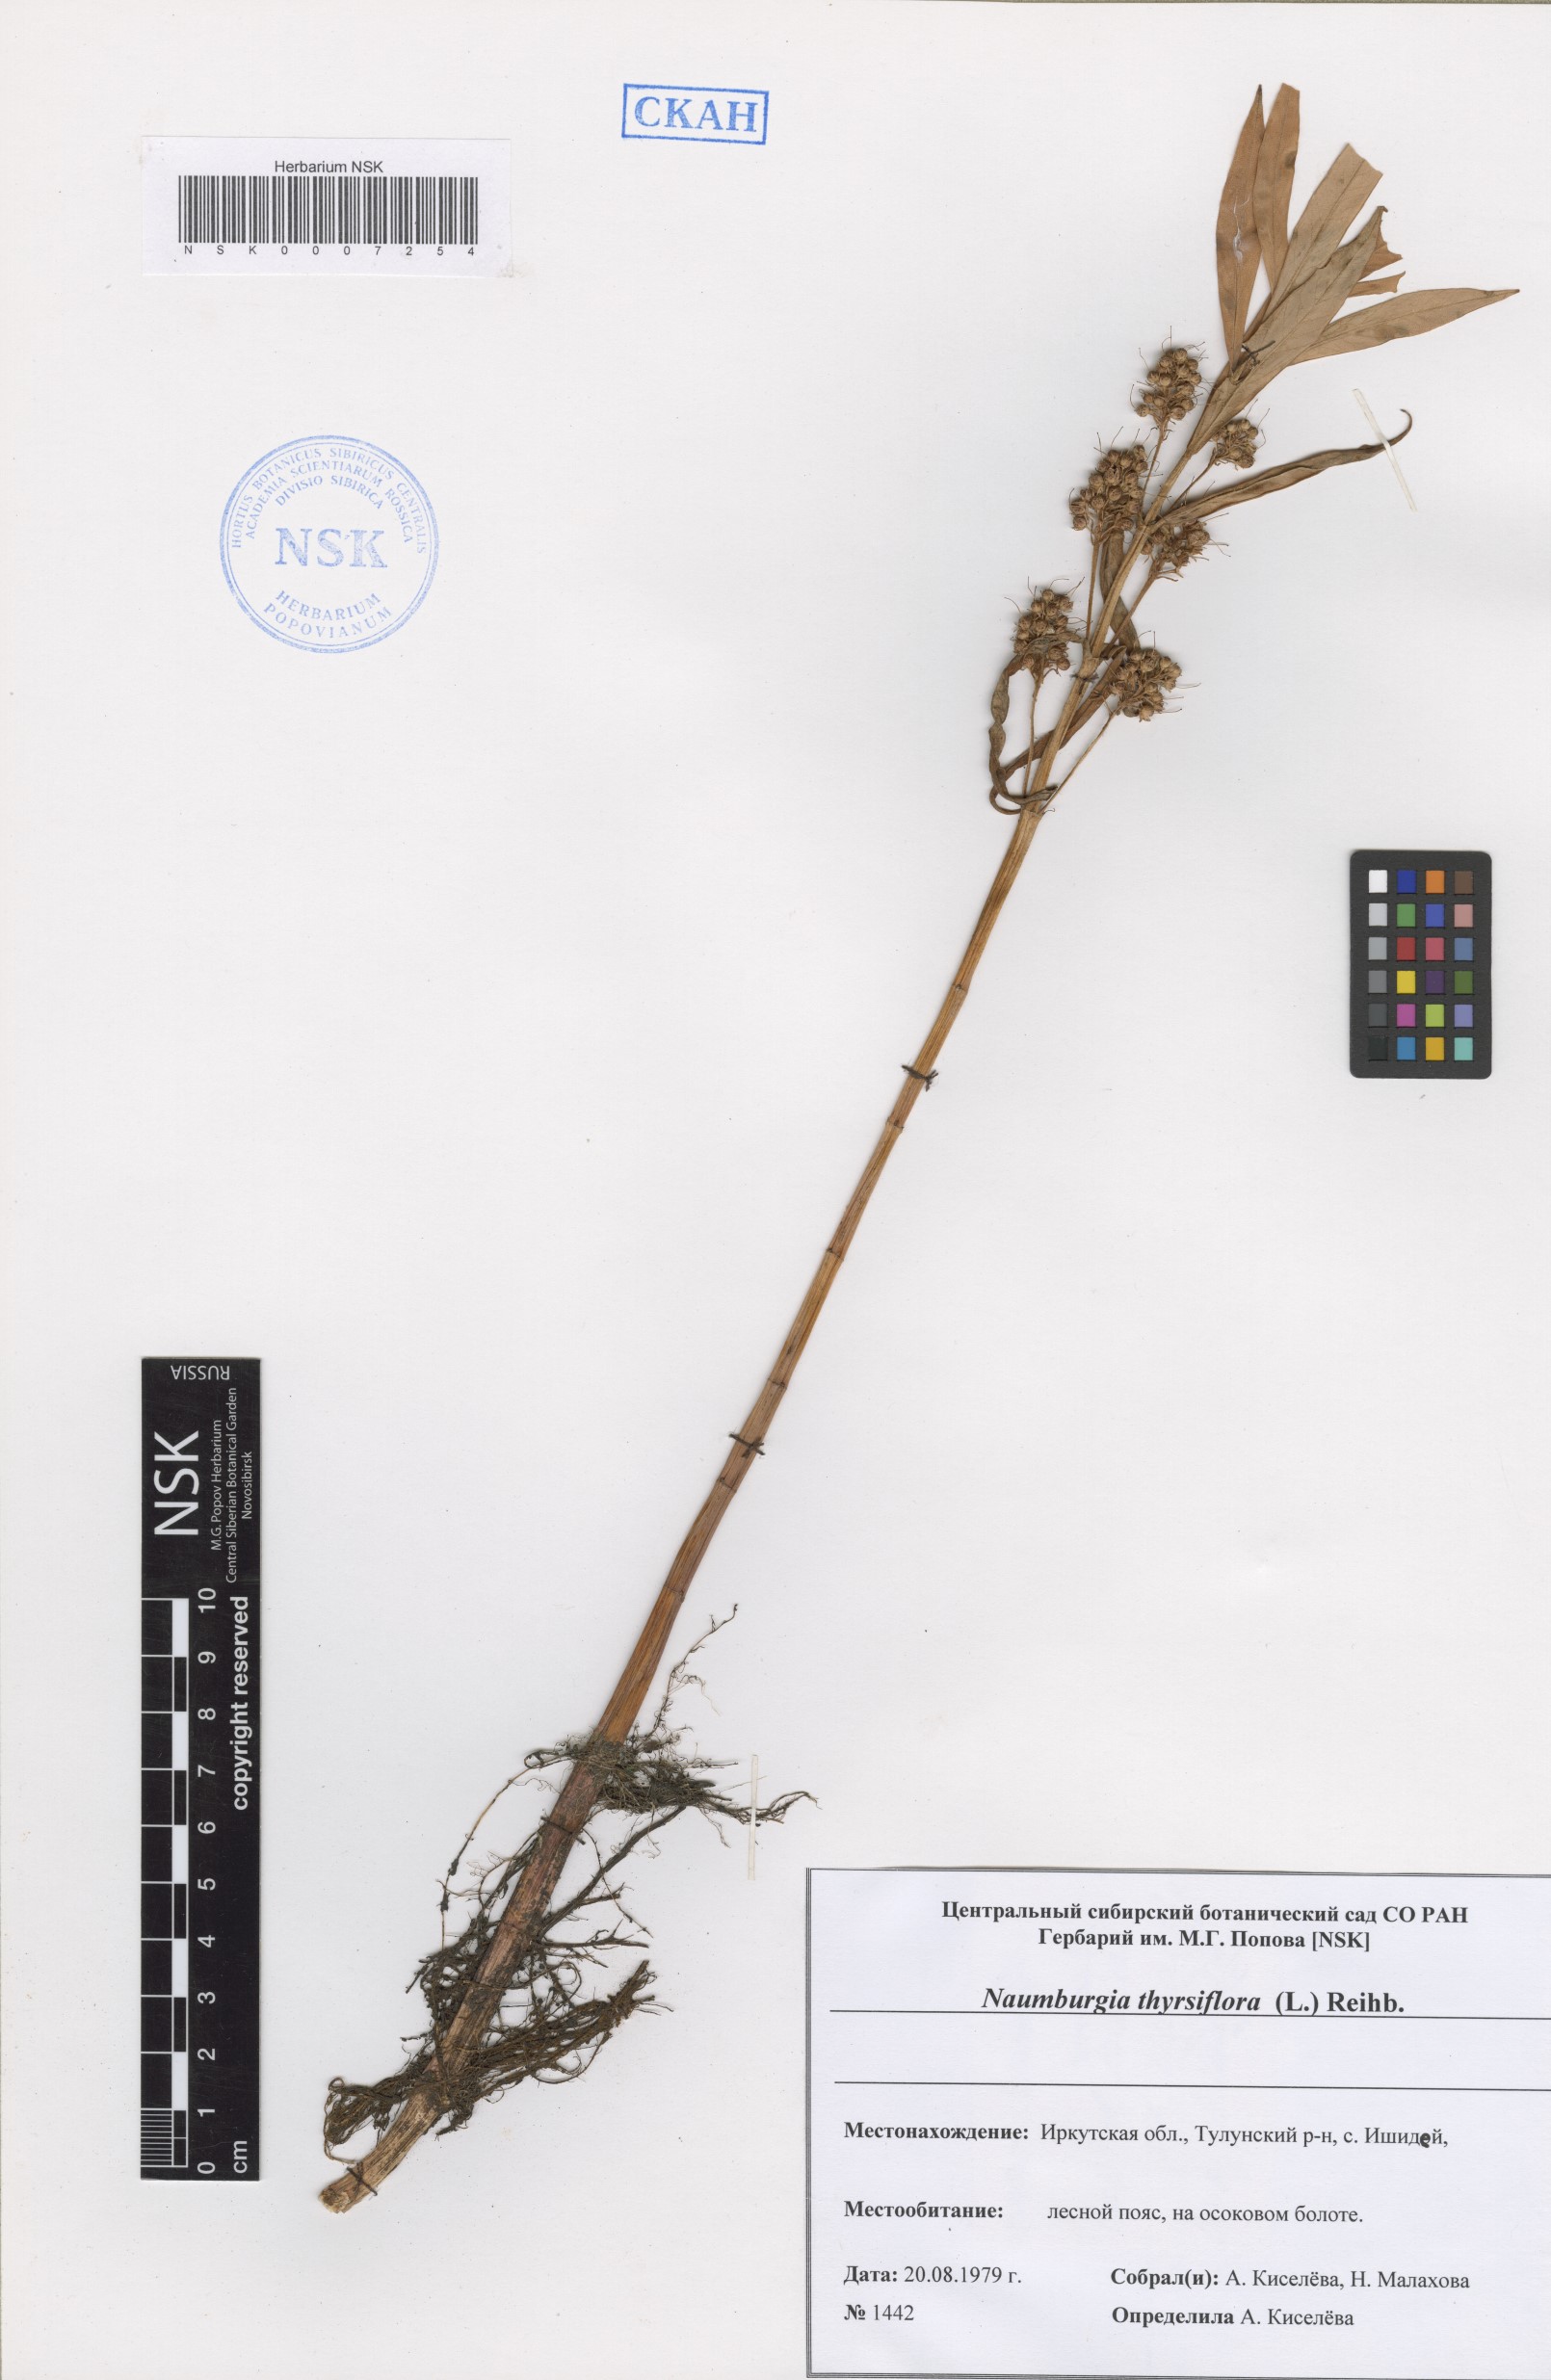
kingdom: Plantae
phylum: Tracheophyta
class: Magnoliopsida
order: Ericales
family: Primulaceae
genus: Lysimachia
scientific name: Lysimachia thyrsiflora
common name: Tufted loosestrife
